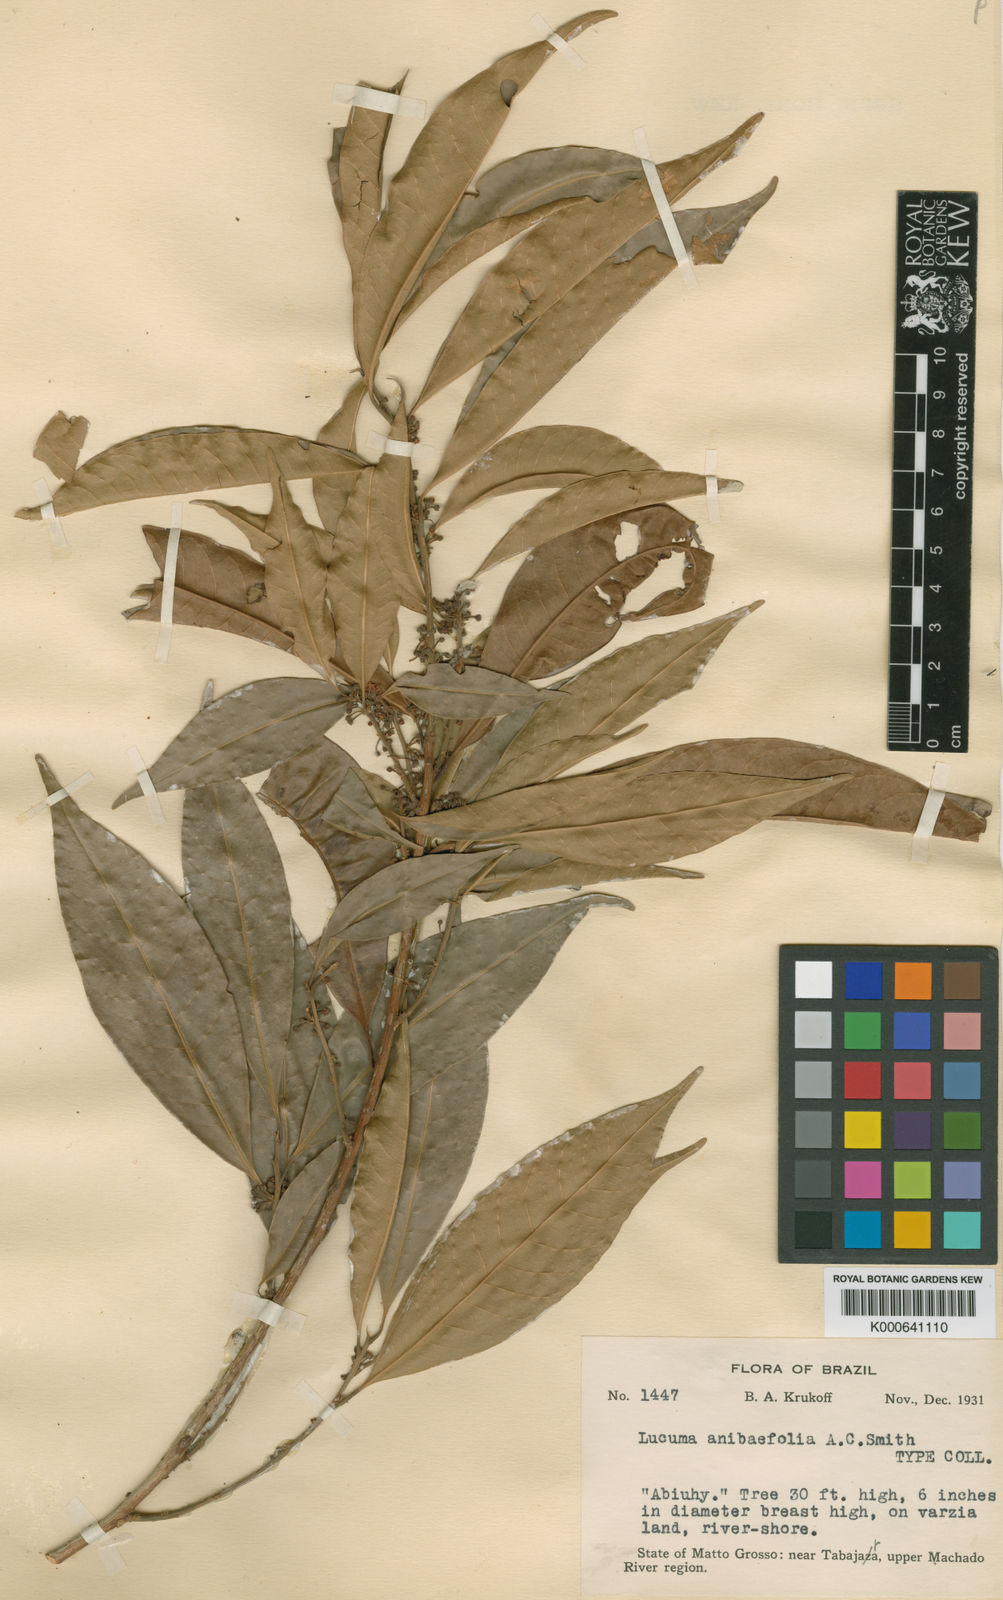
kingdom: Plantae
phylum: Tracheophyta
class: Magnoliopsida
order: Ericales
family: Sapotaceae
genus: Pouteria
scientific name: Pouteria reticulata
